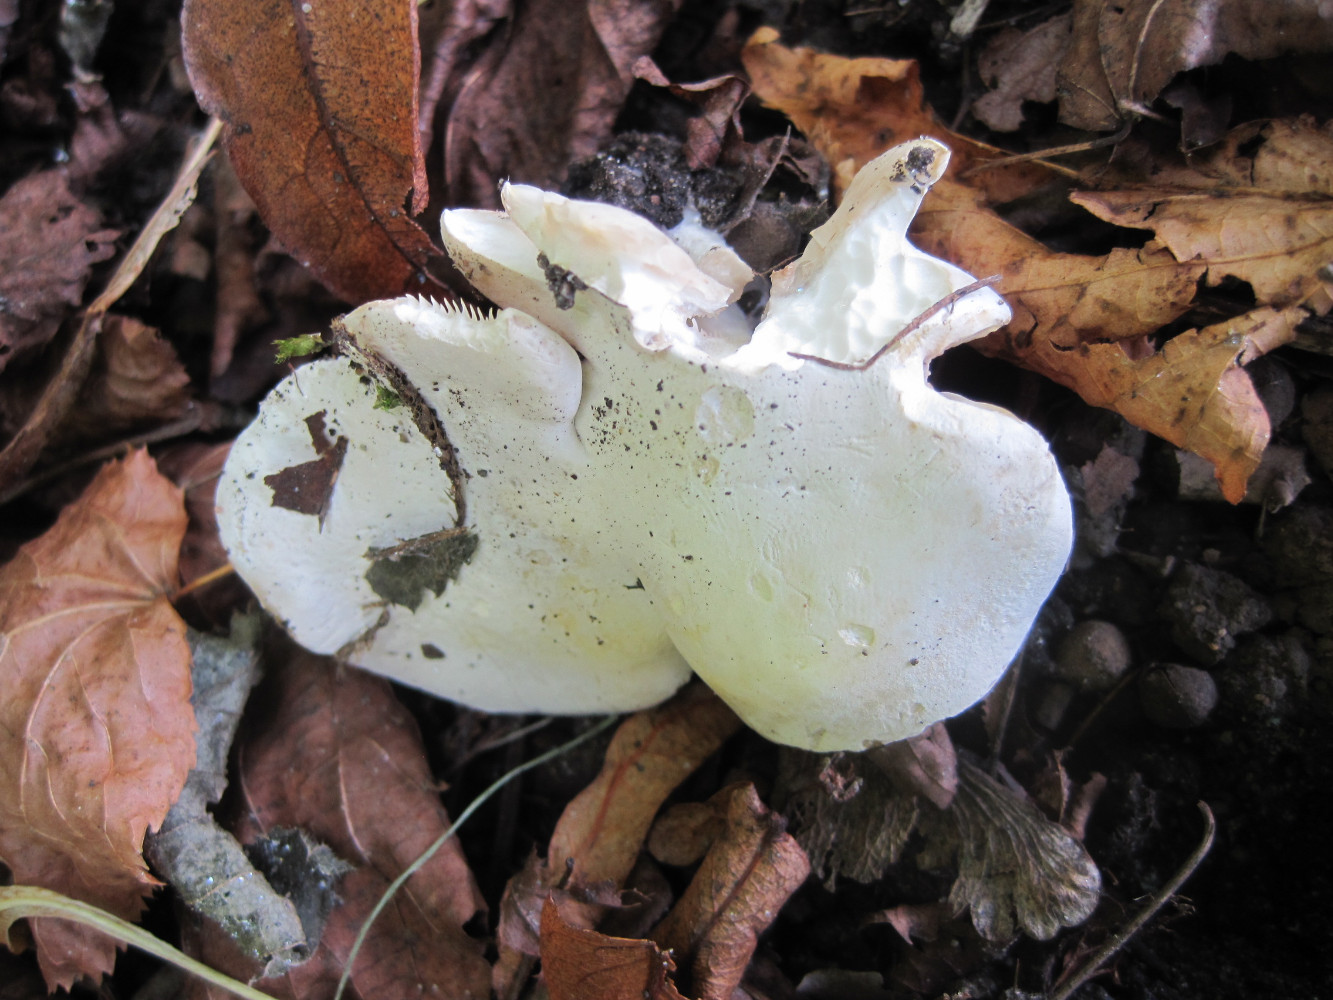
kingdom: Fungi
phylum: Basidiomycota
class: Agaricomycetes
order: Agaricales
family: Entolomataceae
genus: Clitopilus
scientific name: Clitopilus prunulus
